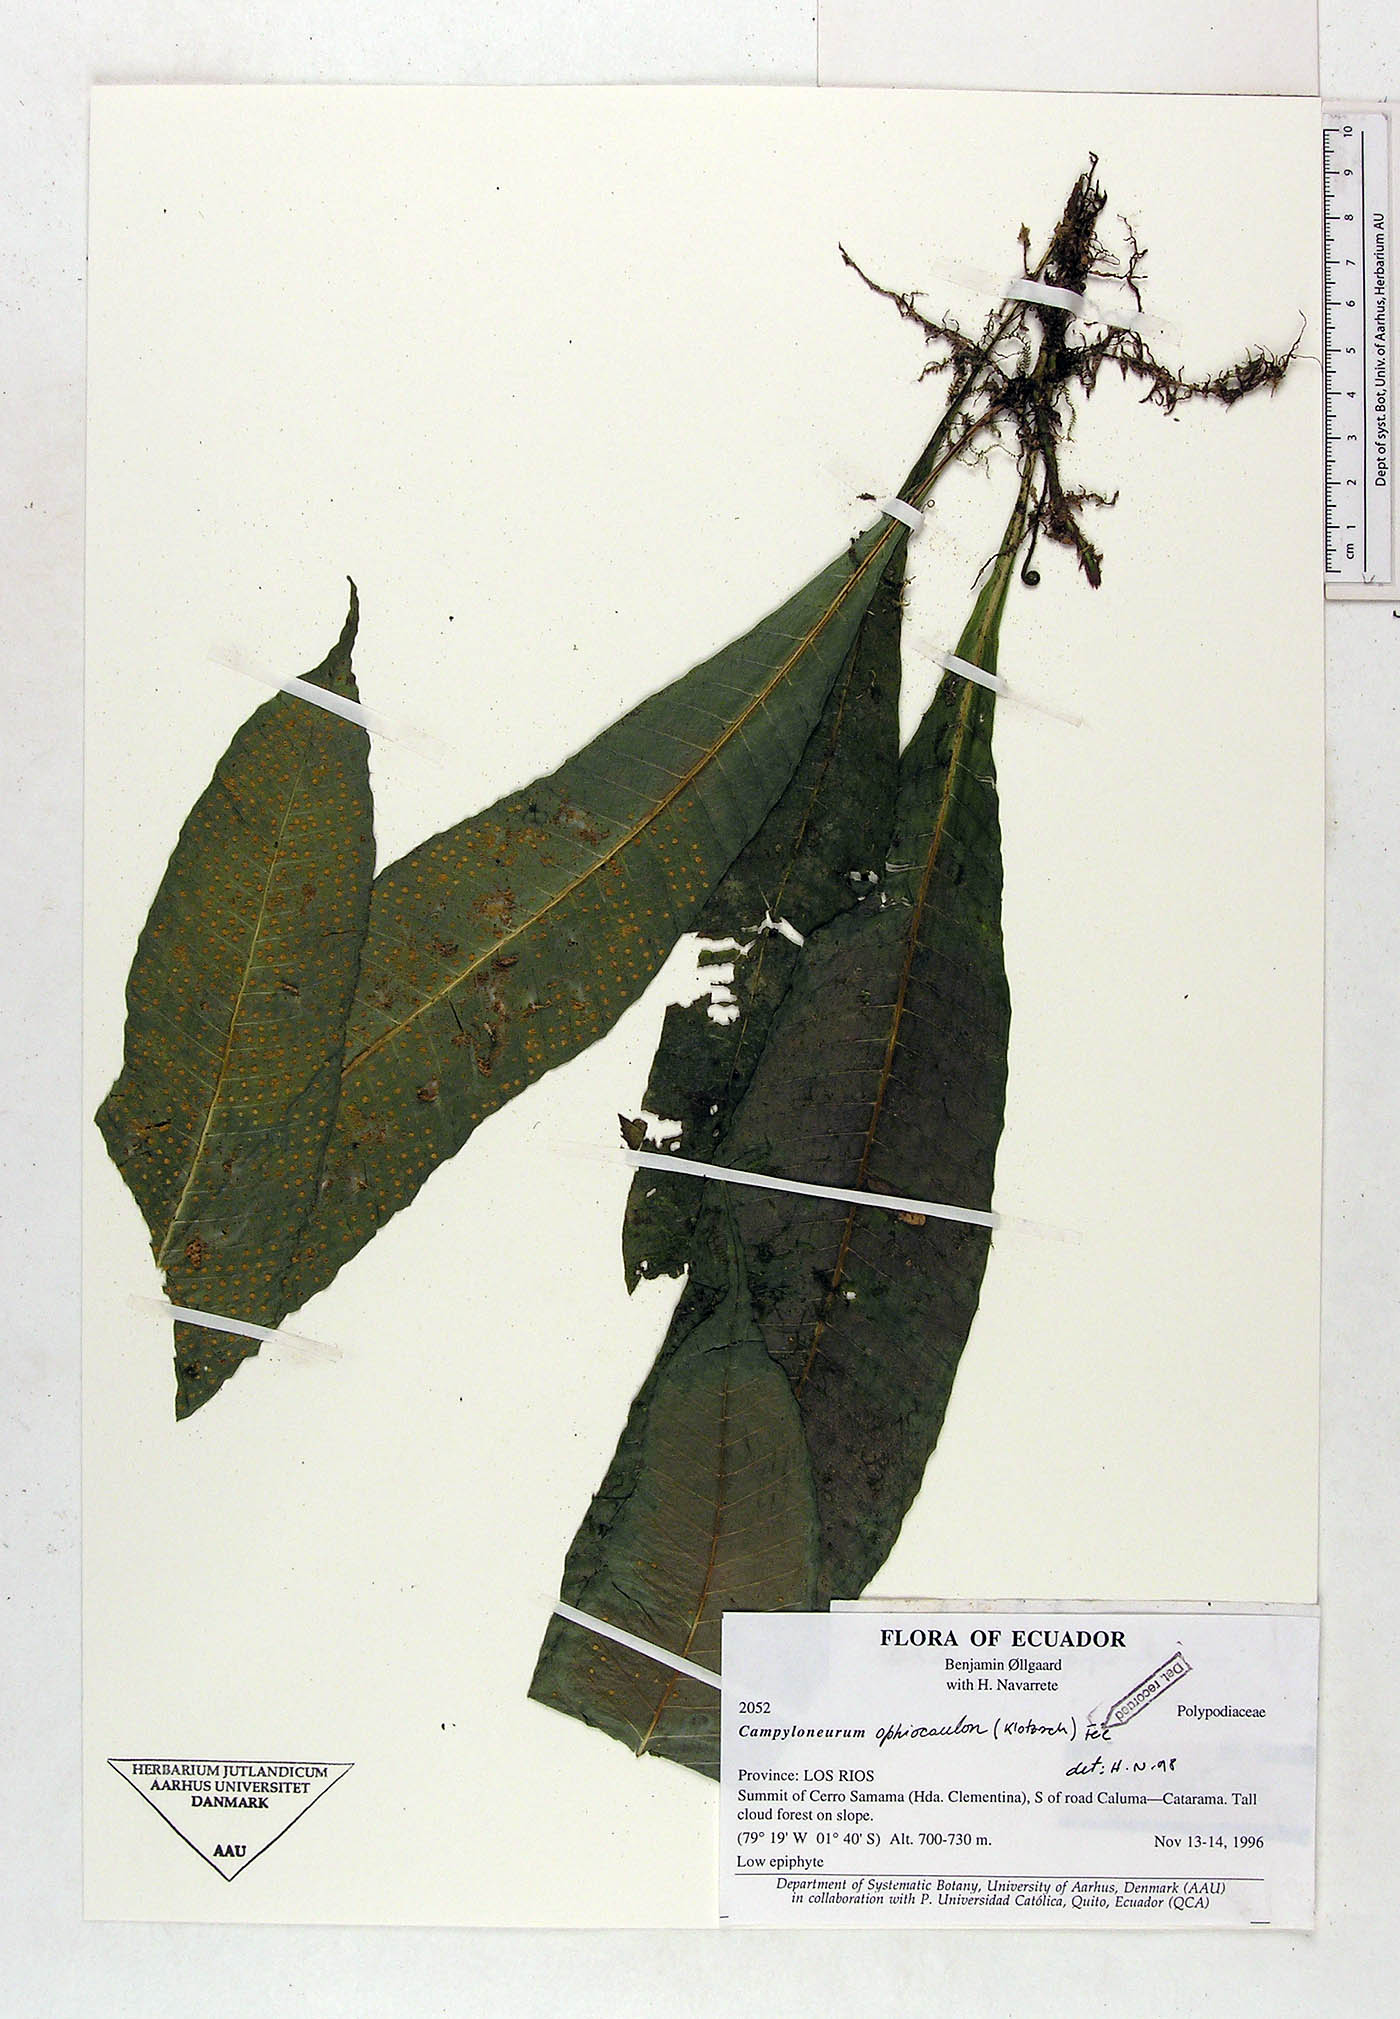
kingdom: Plantae
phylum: Tracheophyta
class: Polypodiopsida
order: Polypodiales
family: Polypodiaceae
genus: Campyloneurum
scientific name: Campyloneurum ophiocaulon
